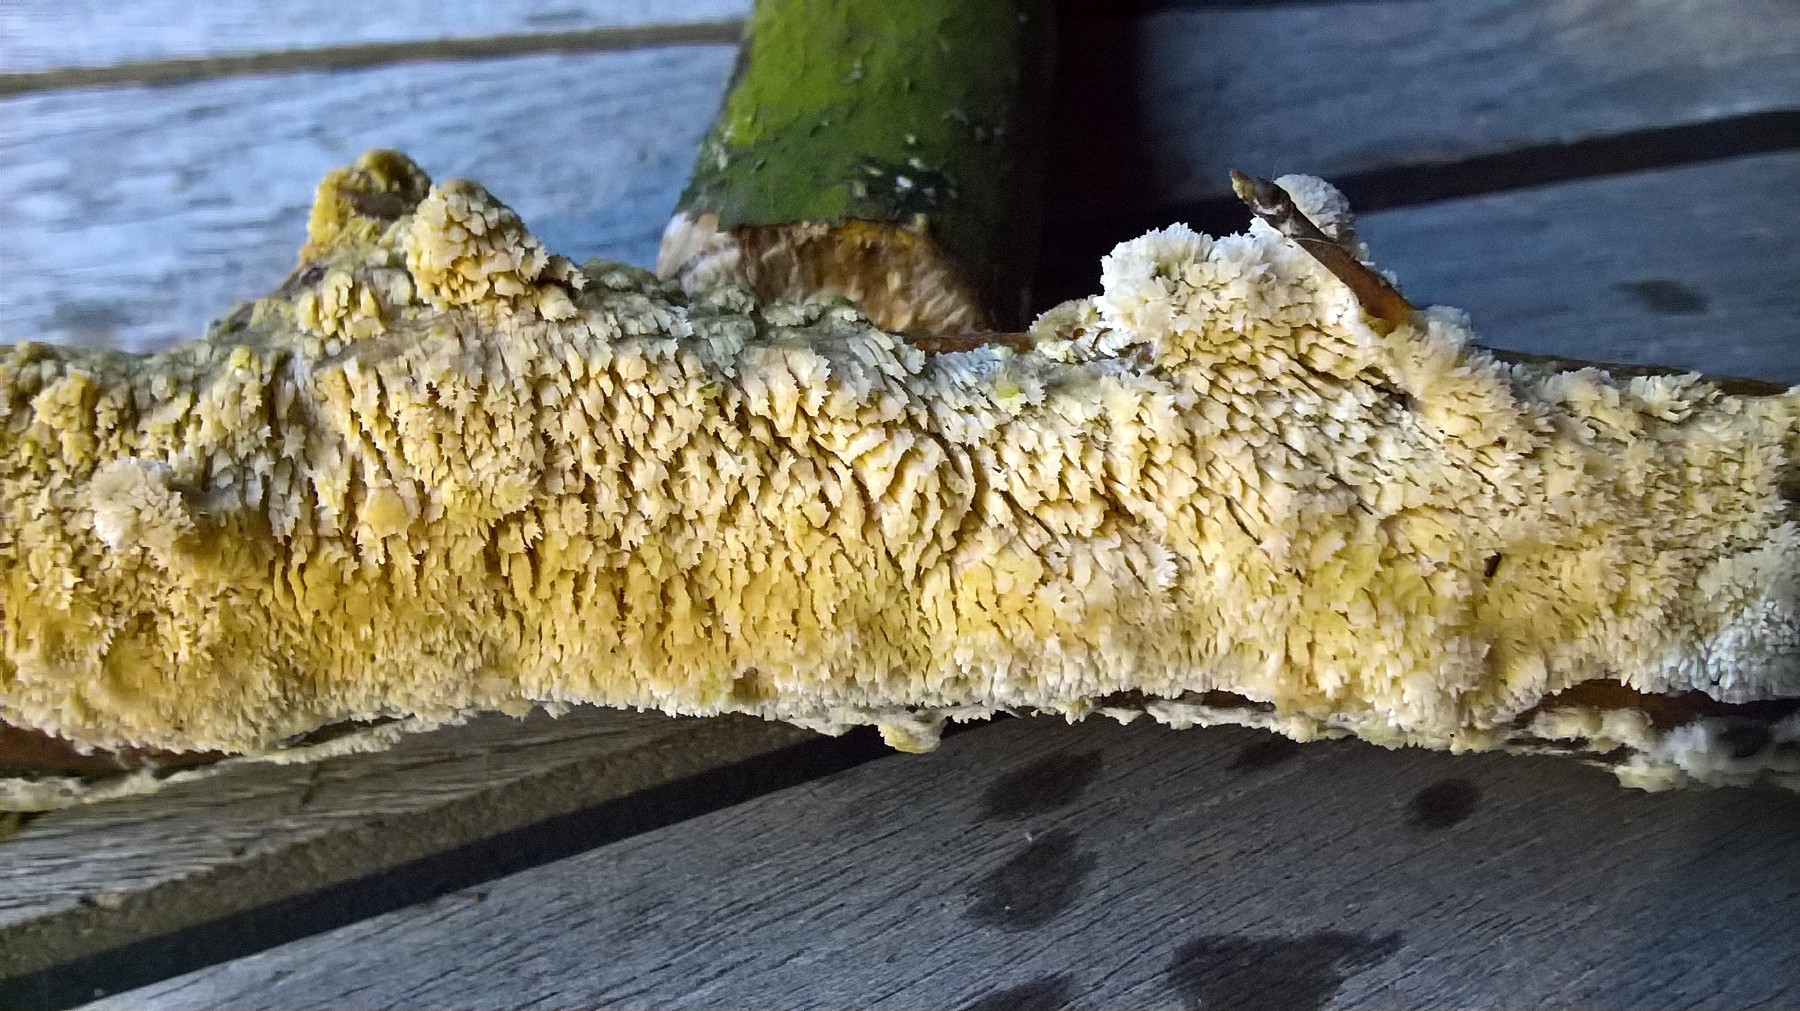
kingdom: Fungi
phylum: Basidiomycota
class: Agaricomycetes
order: Corticiales
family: Corticiaceae
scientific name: Corticiaceae
